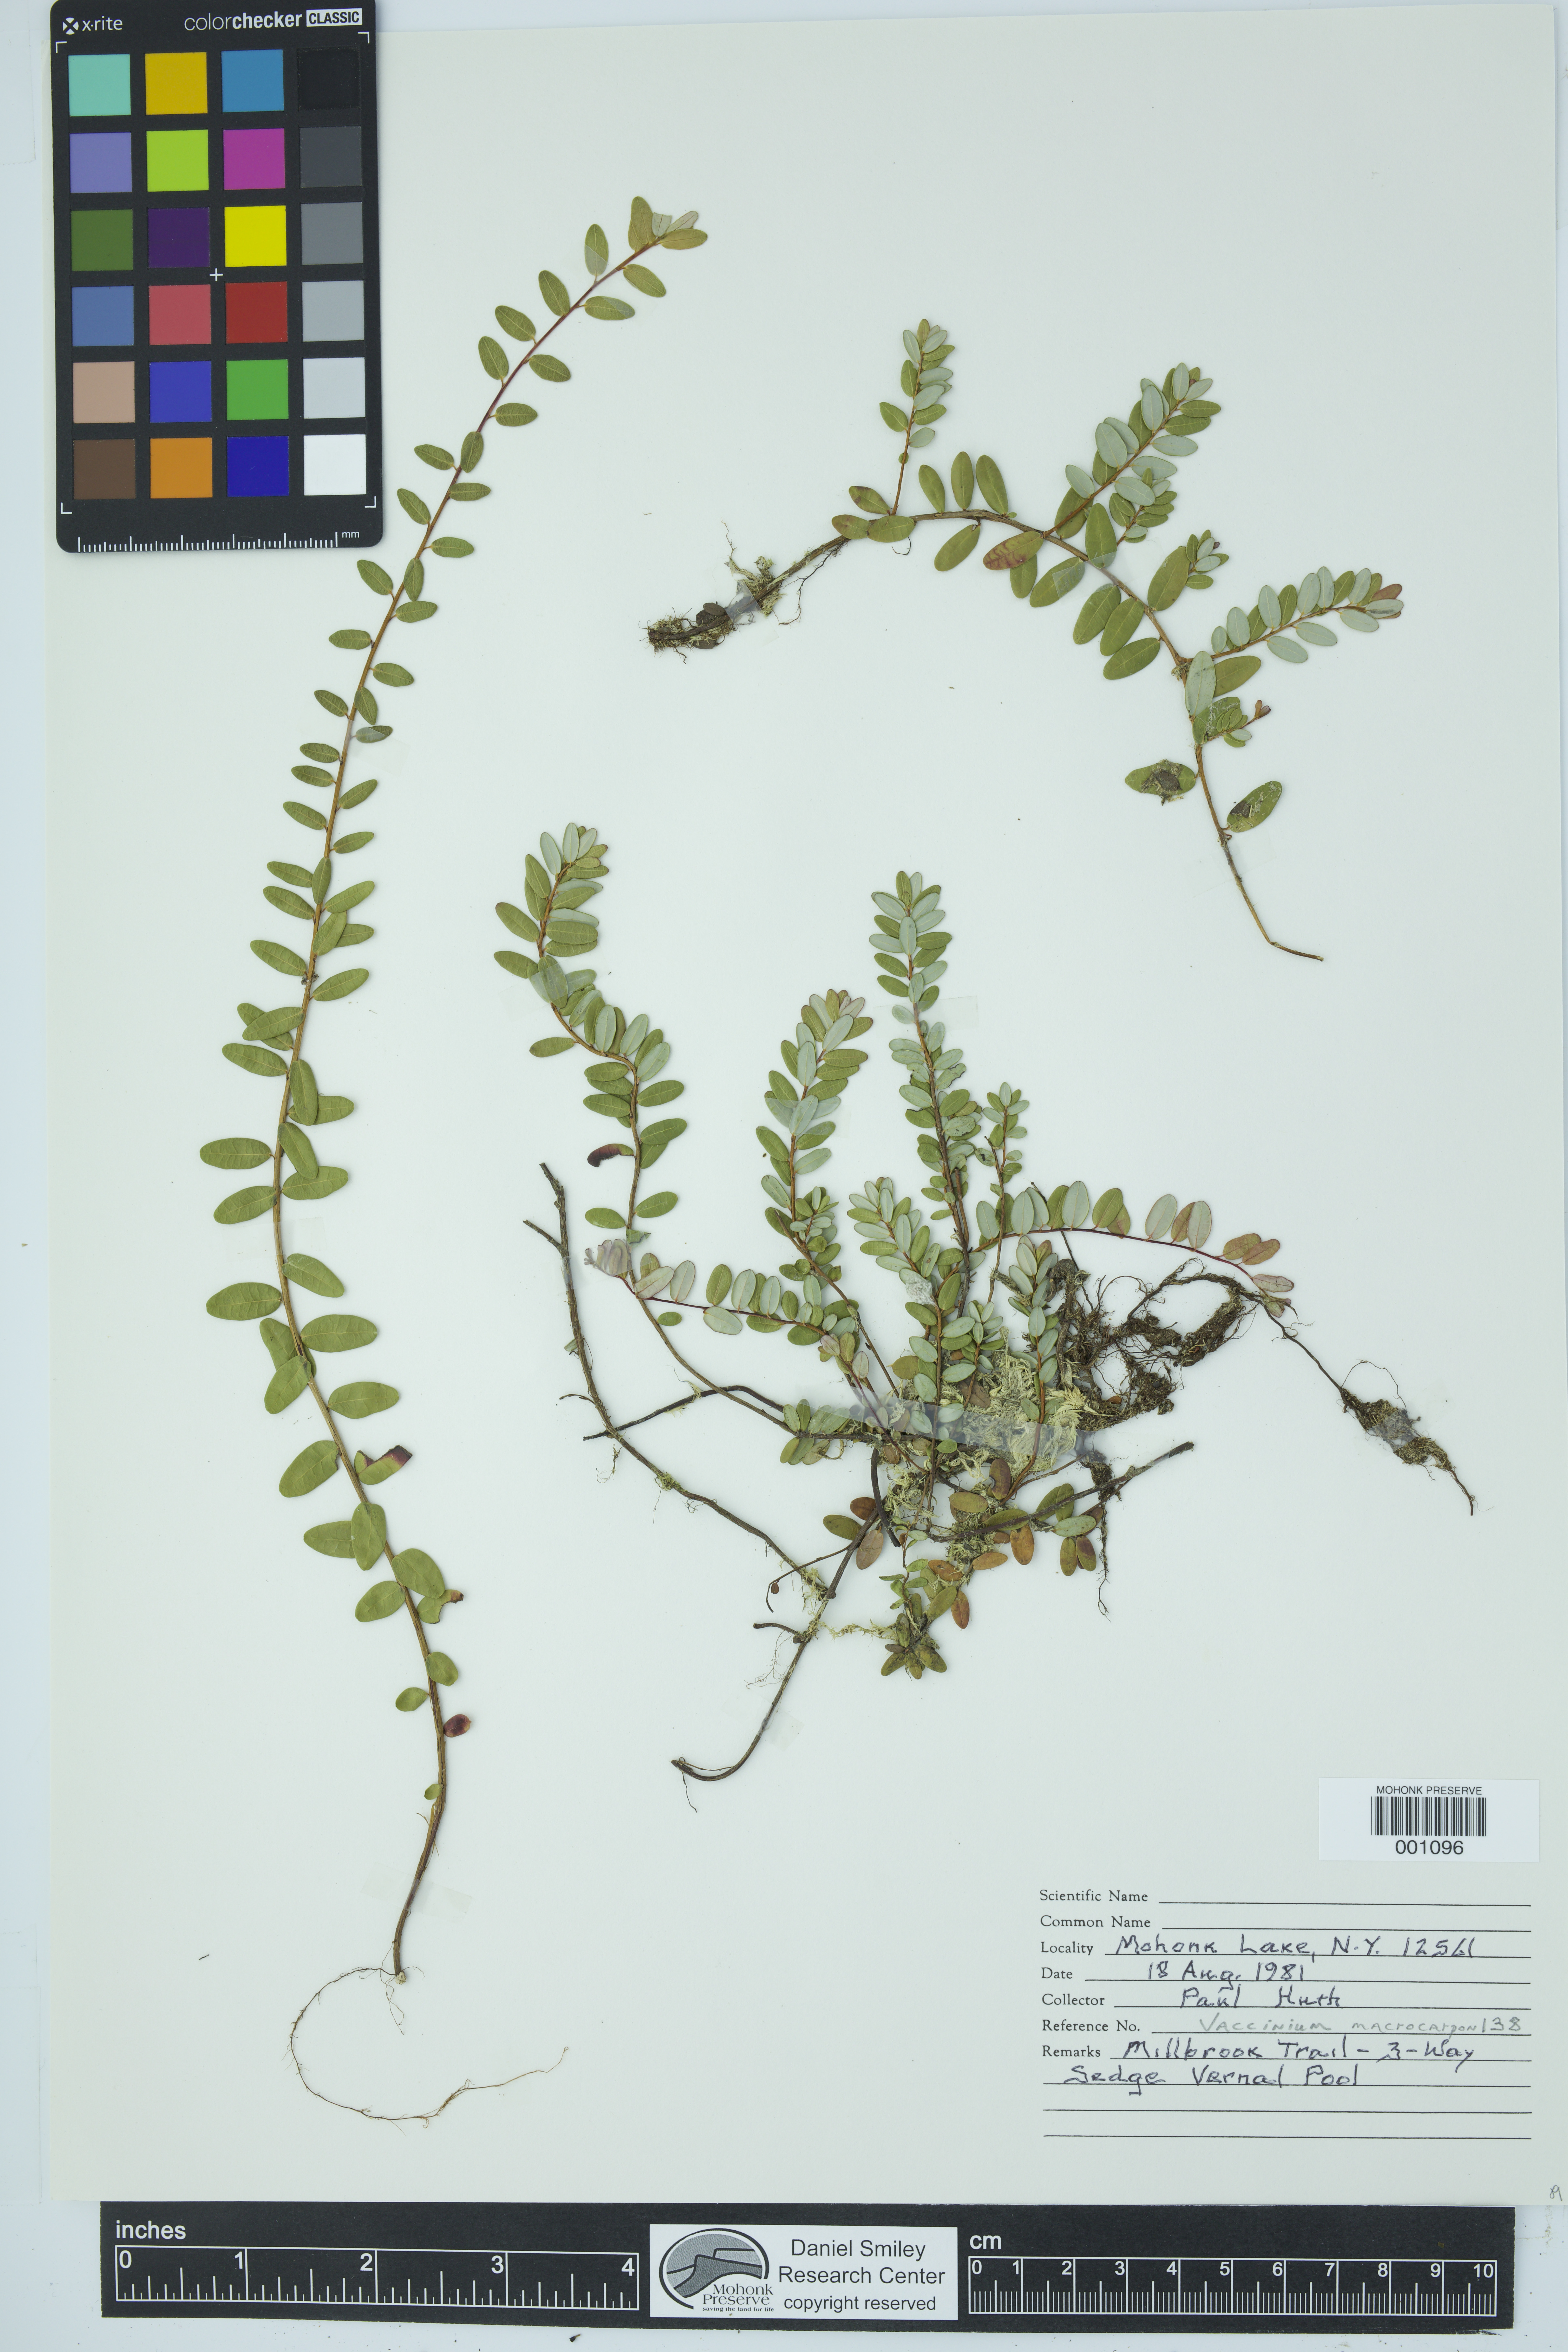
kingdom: Plantae
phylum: Tracheophyta
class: Magnoliopsida
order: Ericales
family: Ericaceae
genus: Vaccinium
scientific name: Vaccinium macrocarpon
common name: American cranberry
